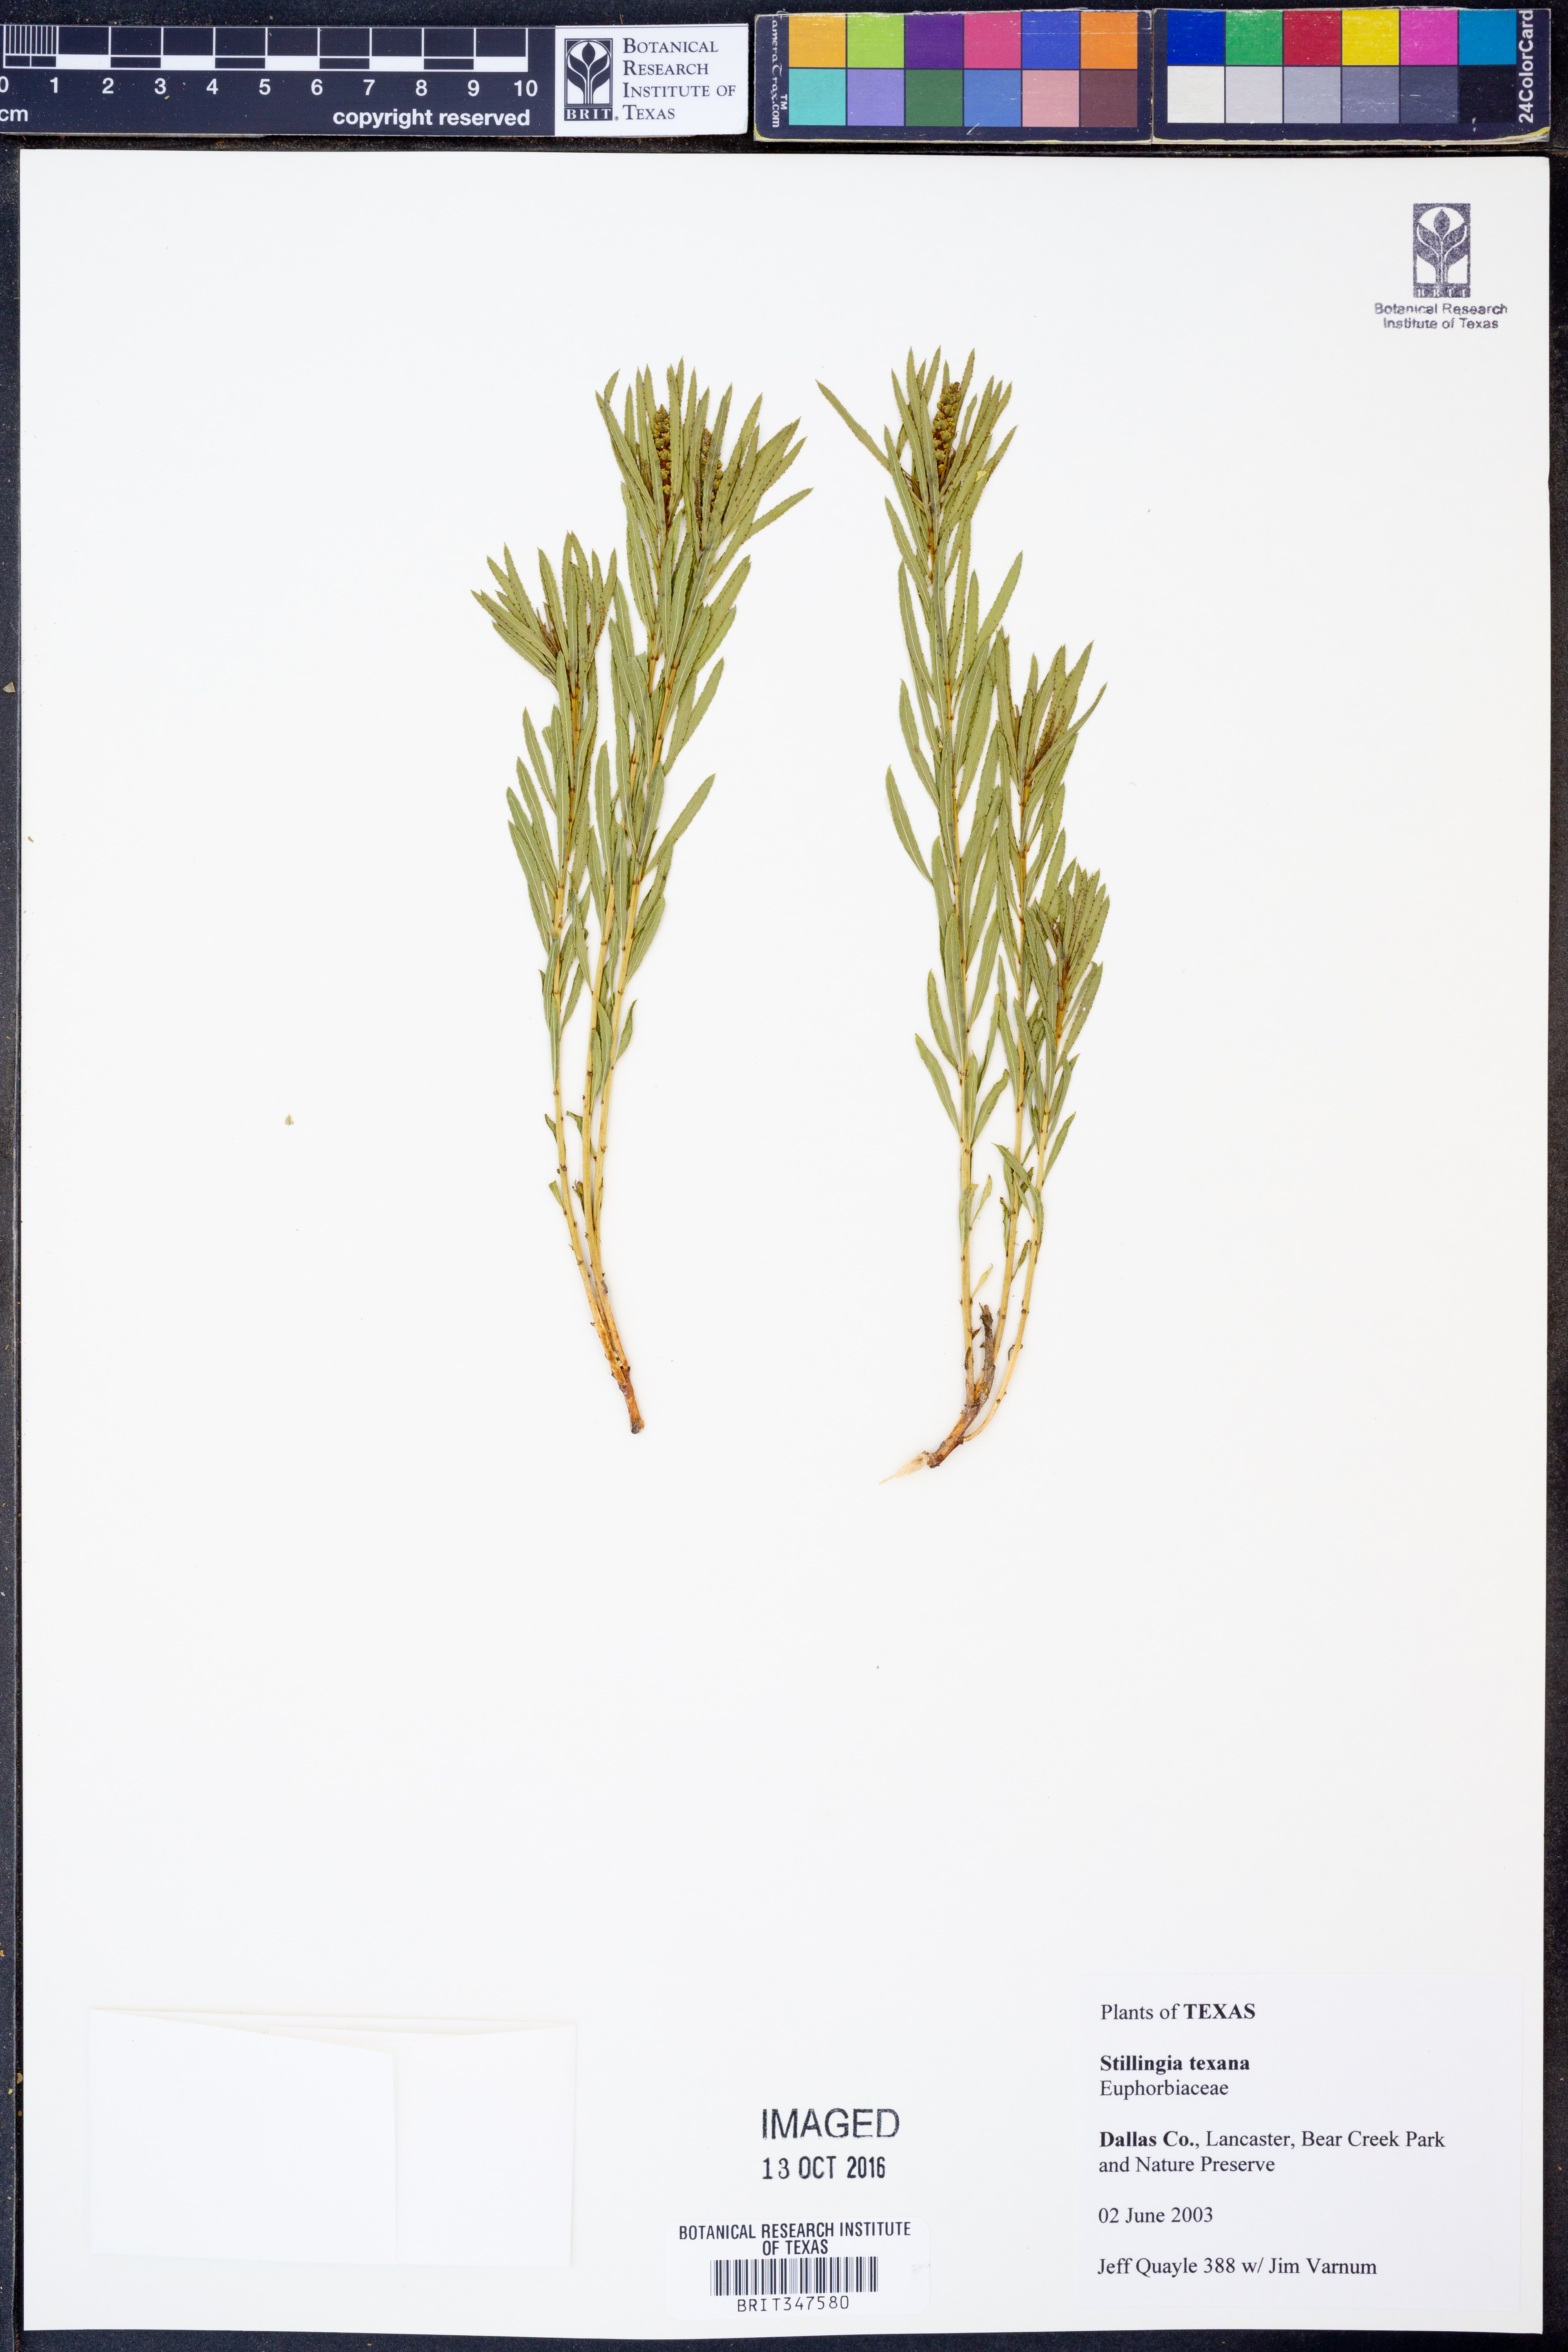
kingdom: Plantae
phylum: Tracheophyta
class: Magnoliopsida
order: Malpighiales
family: Euphorbiaceae
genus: Stillingia
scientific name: Stillingia texana
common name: Texas stillingia
